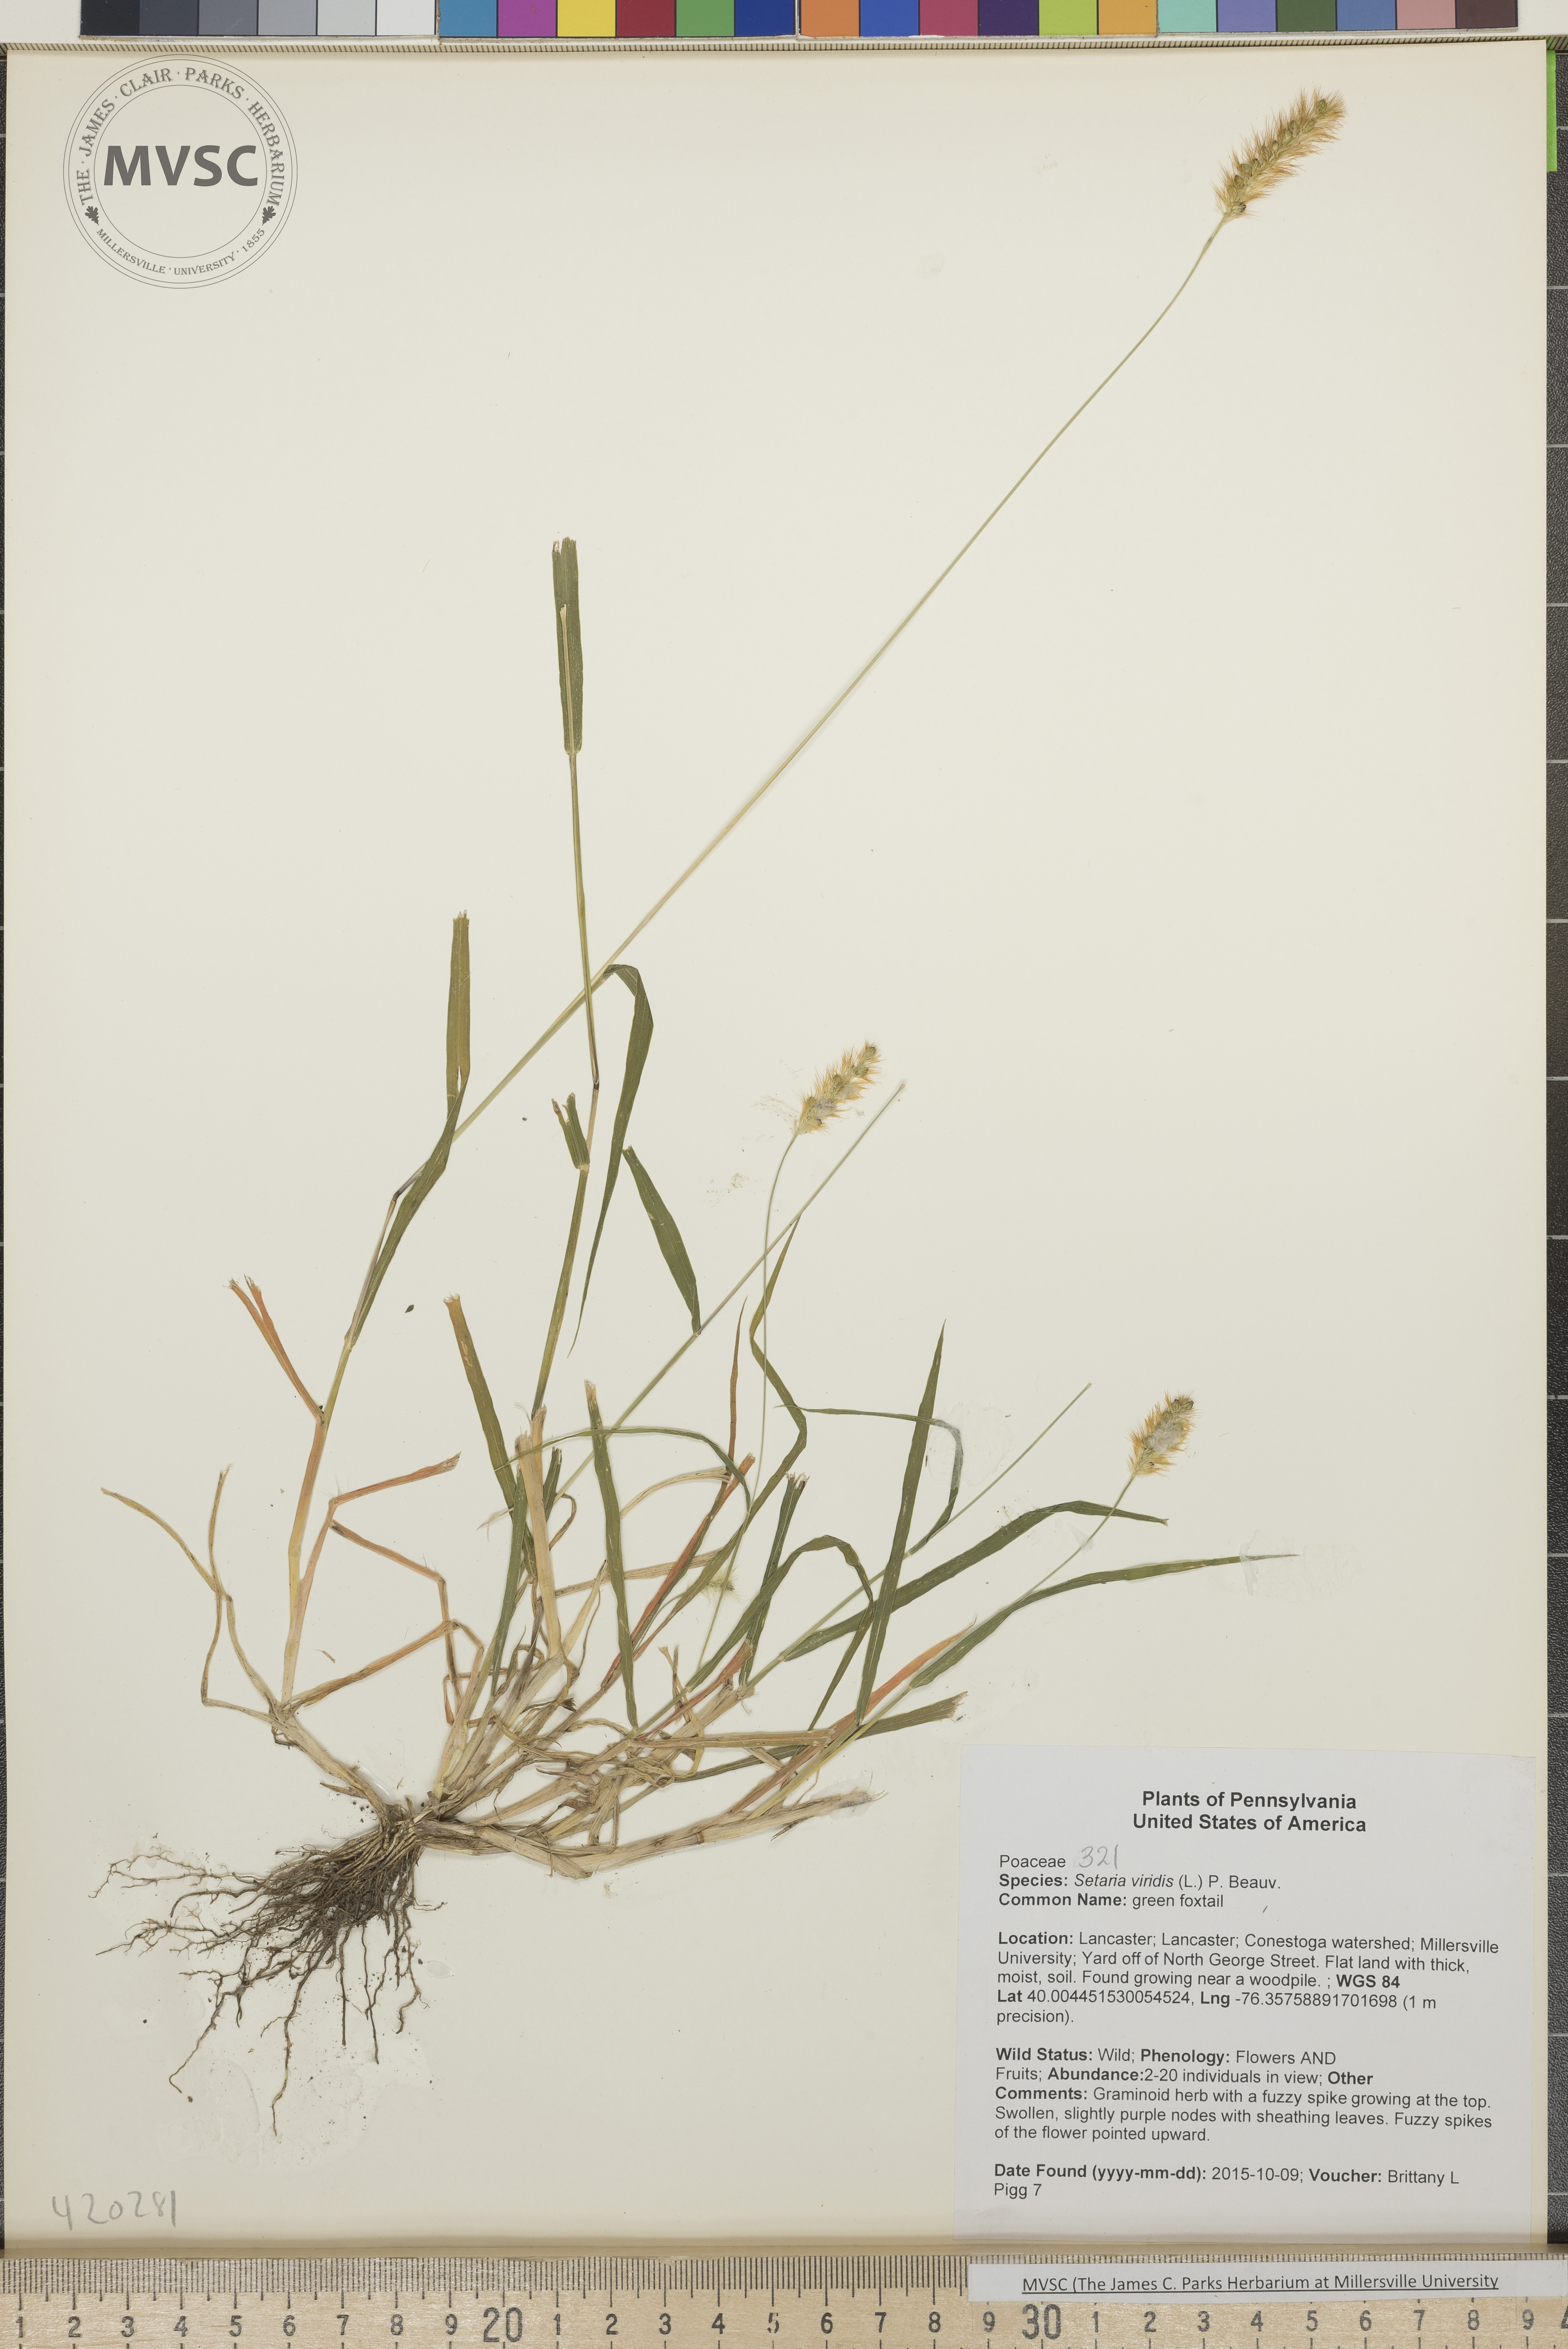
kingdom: Plantae
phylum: Tracheophyta
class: Liliopsida
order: Poales
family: Poaceae
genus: Setaria
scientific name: Setaria viridis
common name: Green Foxtail
